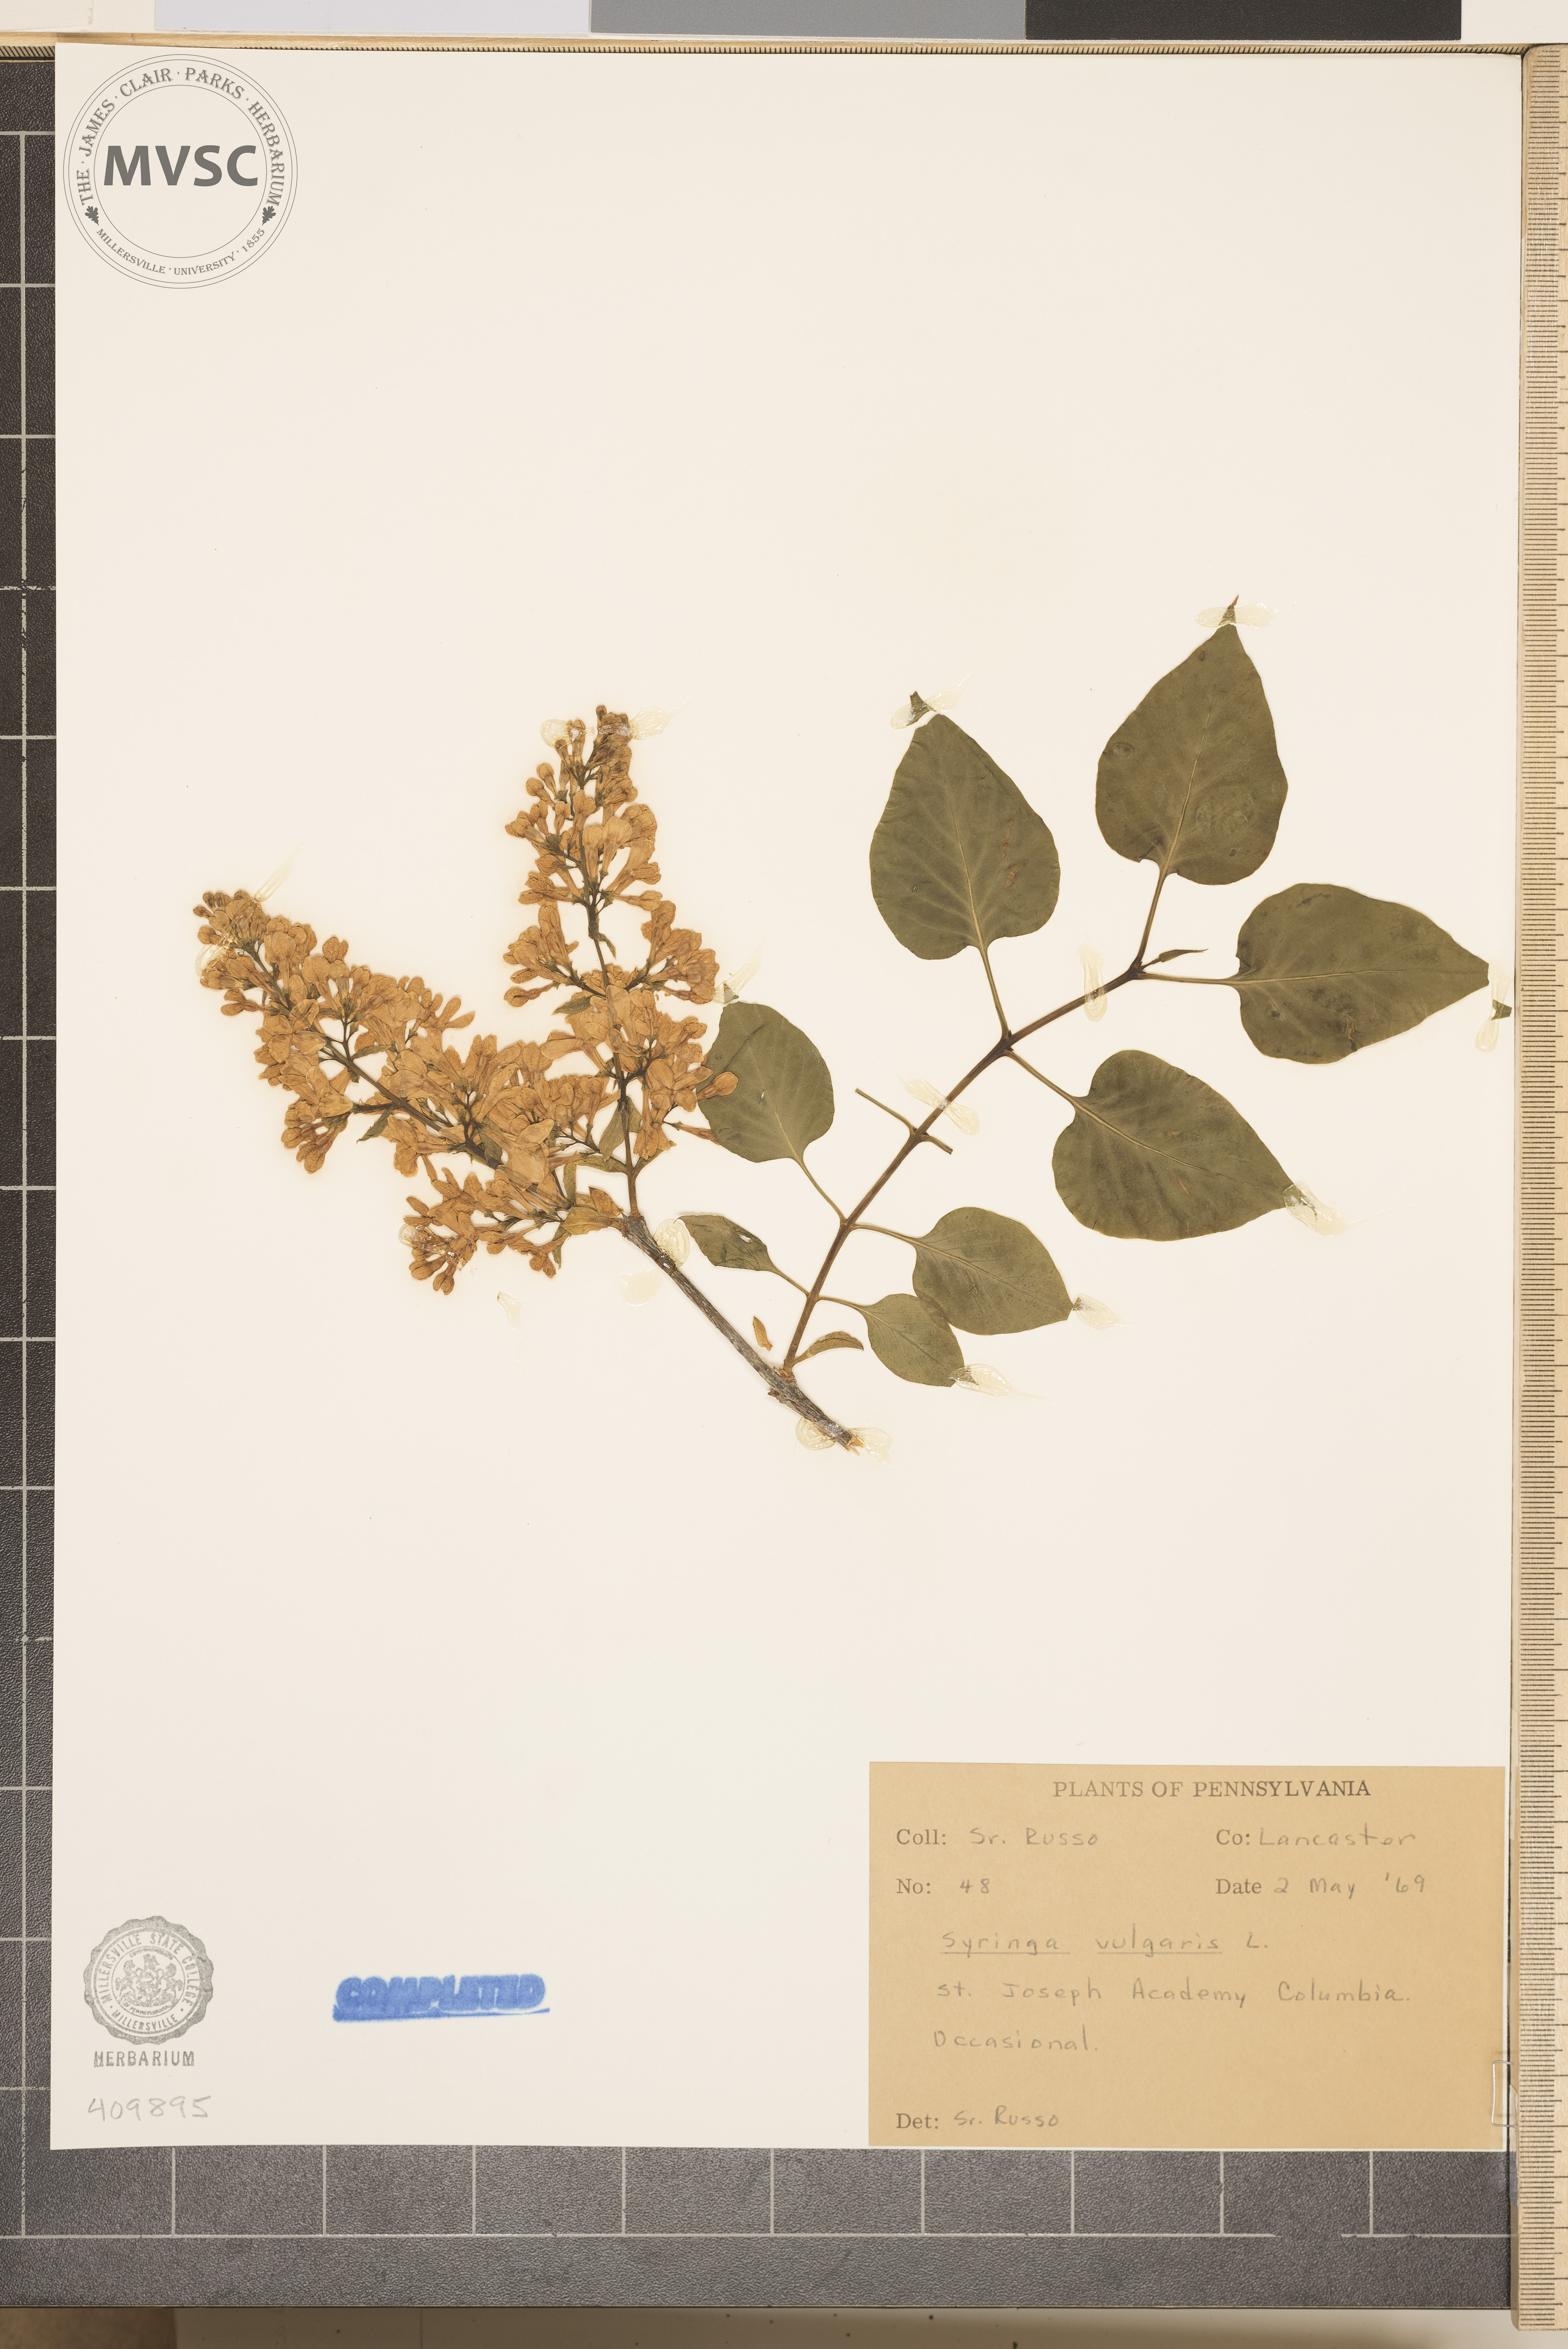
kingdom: Plantae
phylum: Tracheophyta
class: Magnoliopsida
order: Lamiales
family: Oleaceae
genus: Syringa
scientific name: Syringa vulgaris
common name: Common lilac
